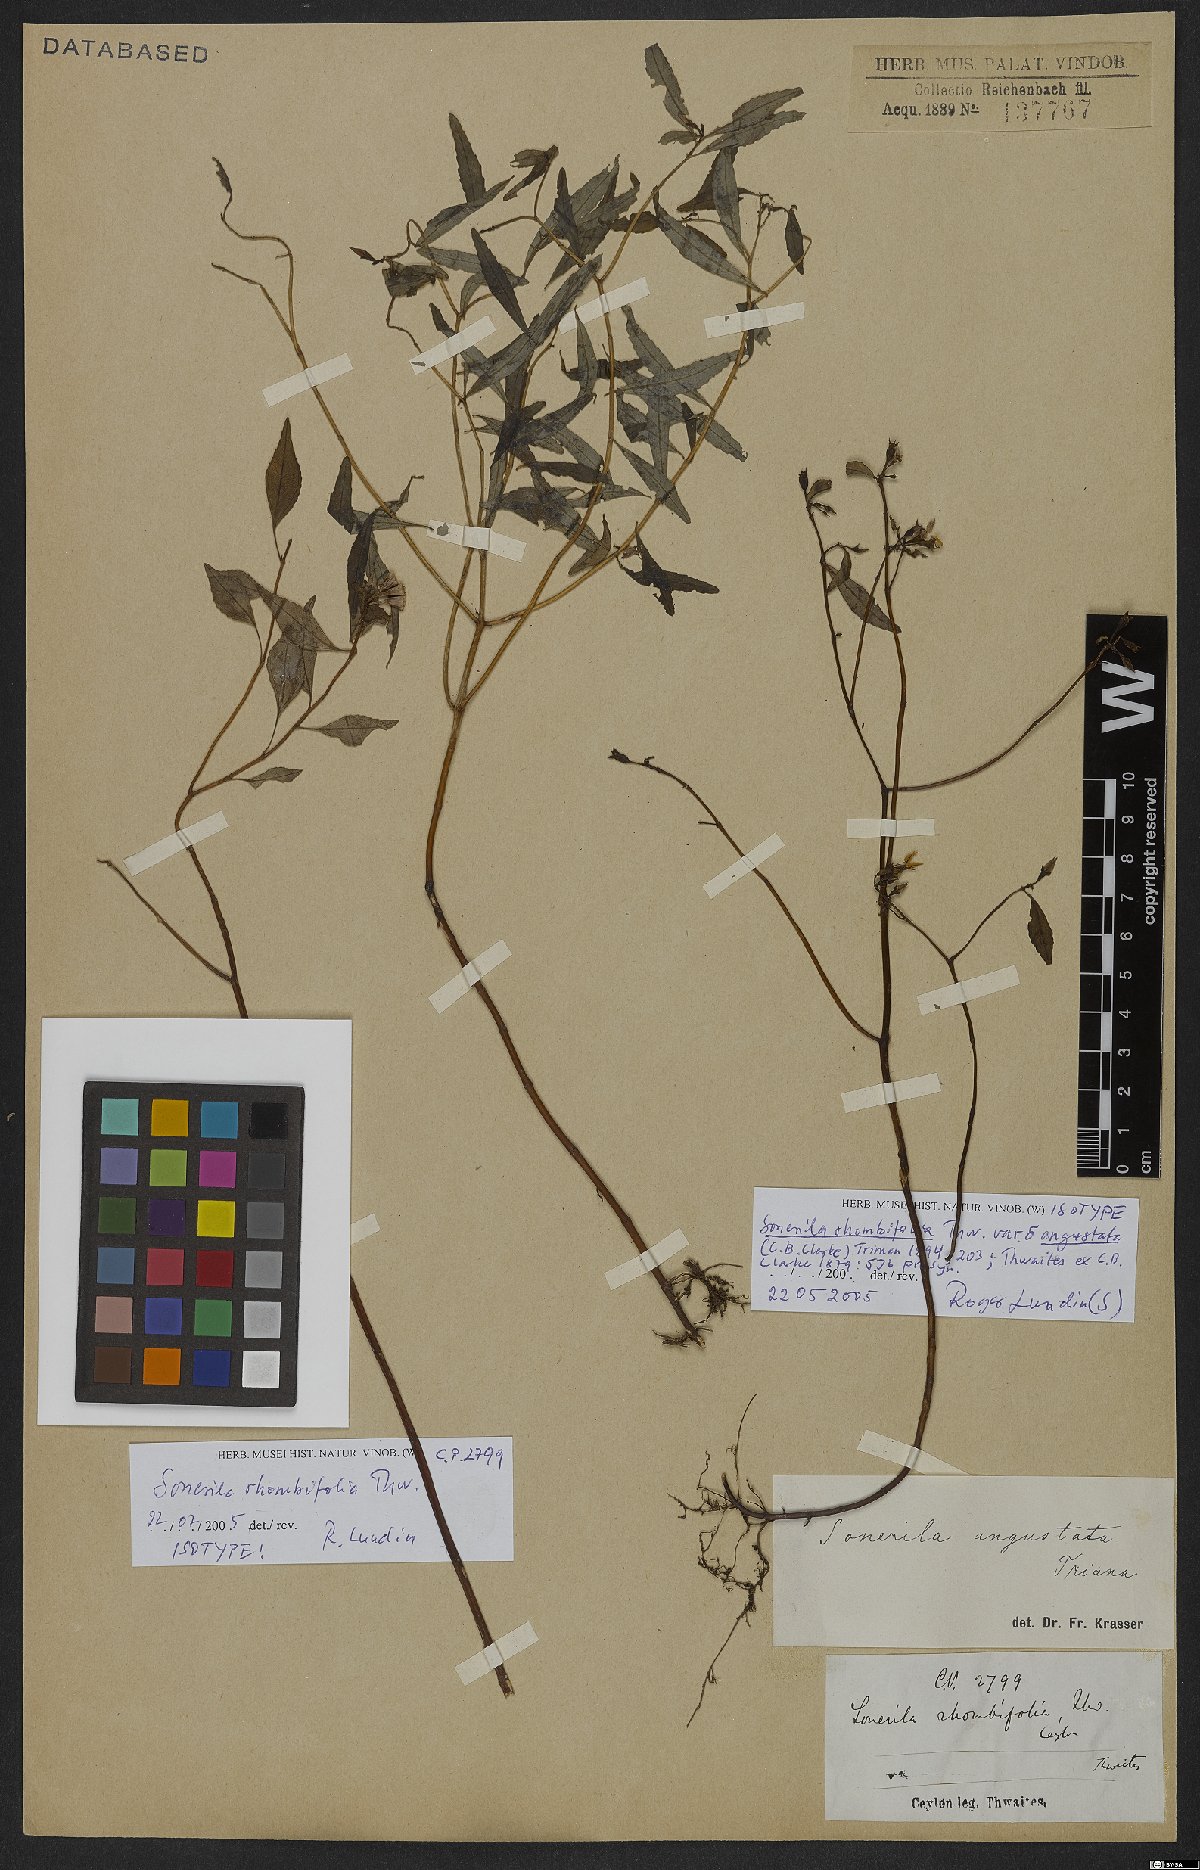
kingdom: Plantae
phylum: Tracheophyta
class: Magnoliopsida
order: Myrtales
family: Melastomataceae
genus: Sonerila
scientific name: Sonerila rhombifolia
